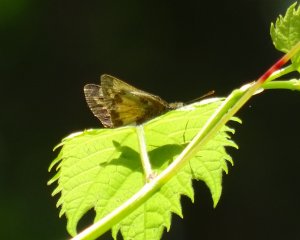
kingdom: Animalia
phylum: Arthropoda
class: Insecta
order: Lepidoptera
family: Hesperiidae
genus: Lon
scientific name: Lon hobomok
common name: Hobomok Skipper
